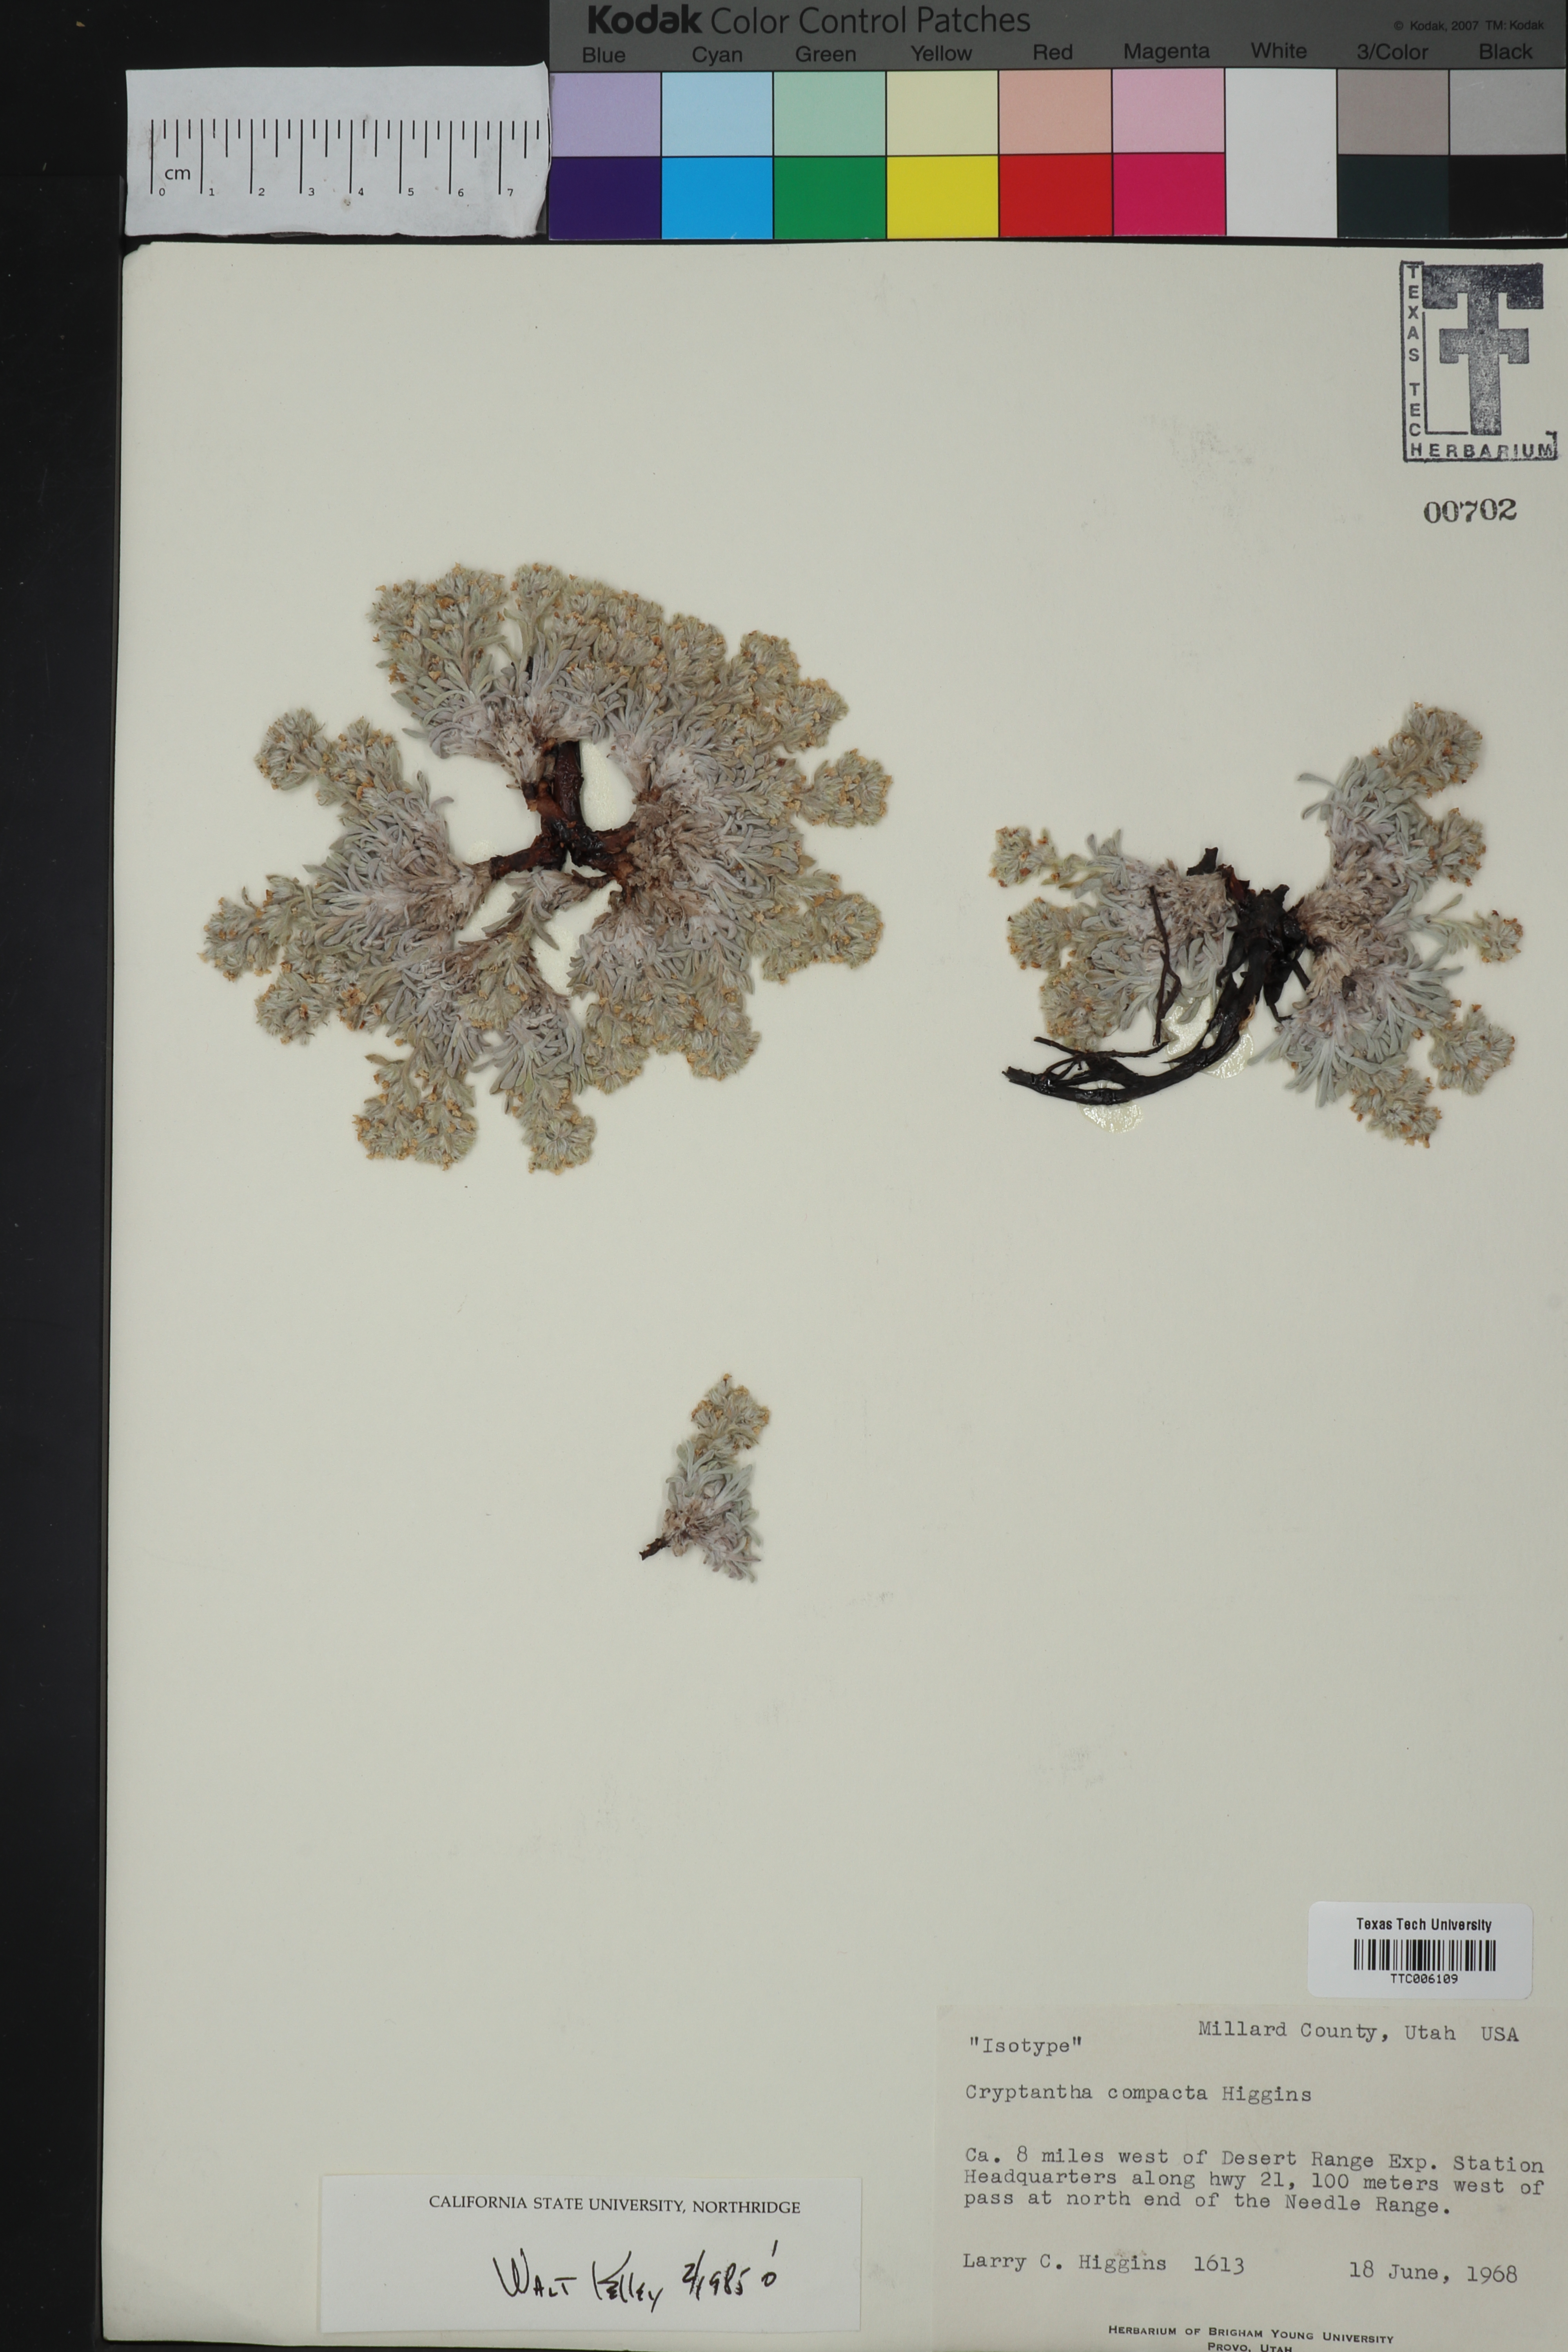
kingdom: Plantae
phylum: Tracheophyta
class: Magnoliopsida
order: Boraginales
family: Boraginaceae
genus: Oreocarya
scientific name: Oreocarya compacta
